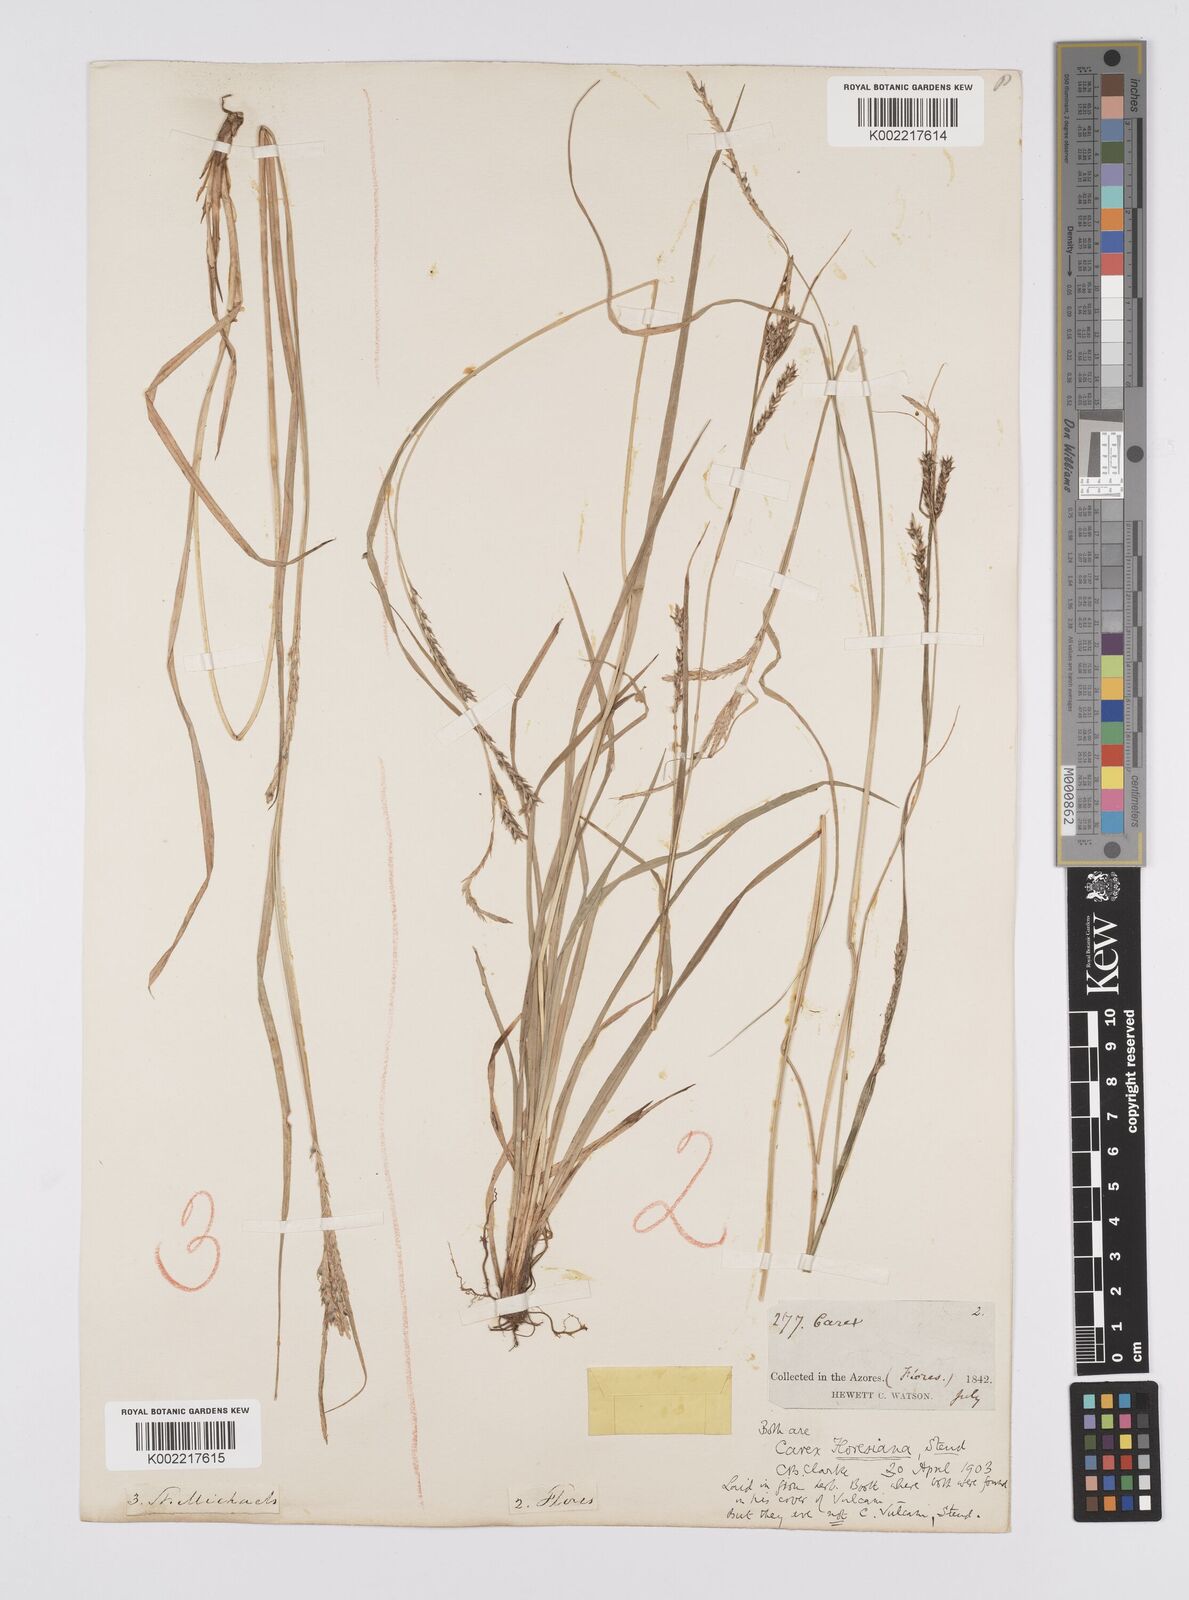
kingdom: Plantae
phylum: Tracheophyta
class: Liliopsida
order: Poales
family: Cyperaceae
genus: Carex
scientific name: Carex vulcani
